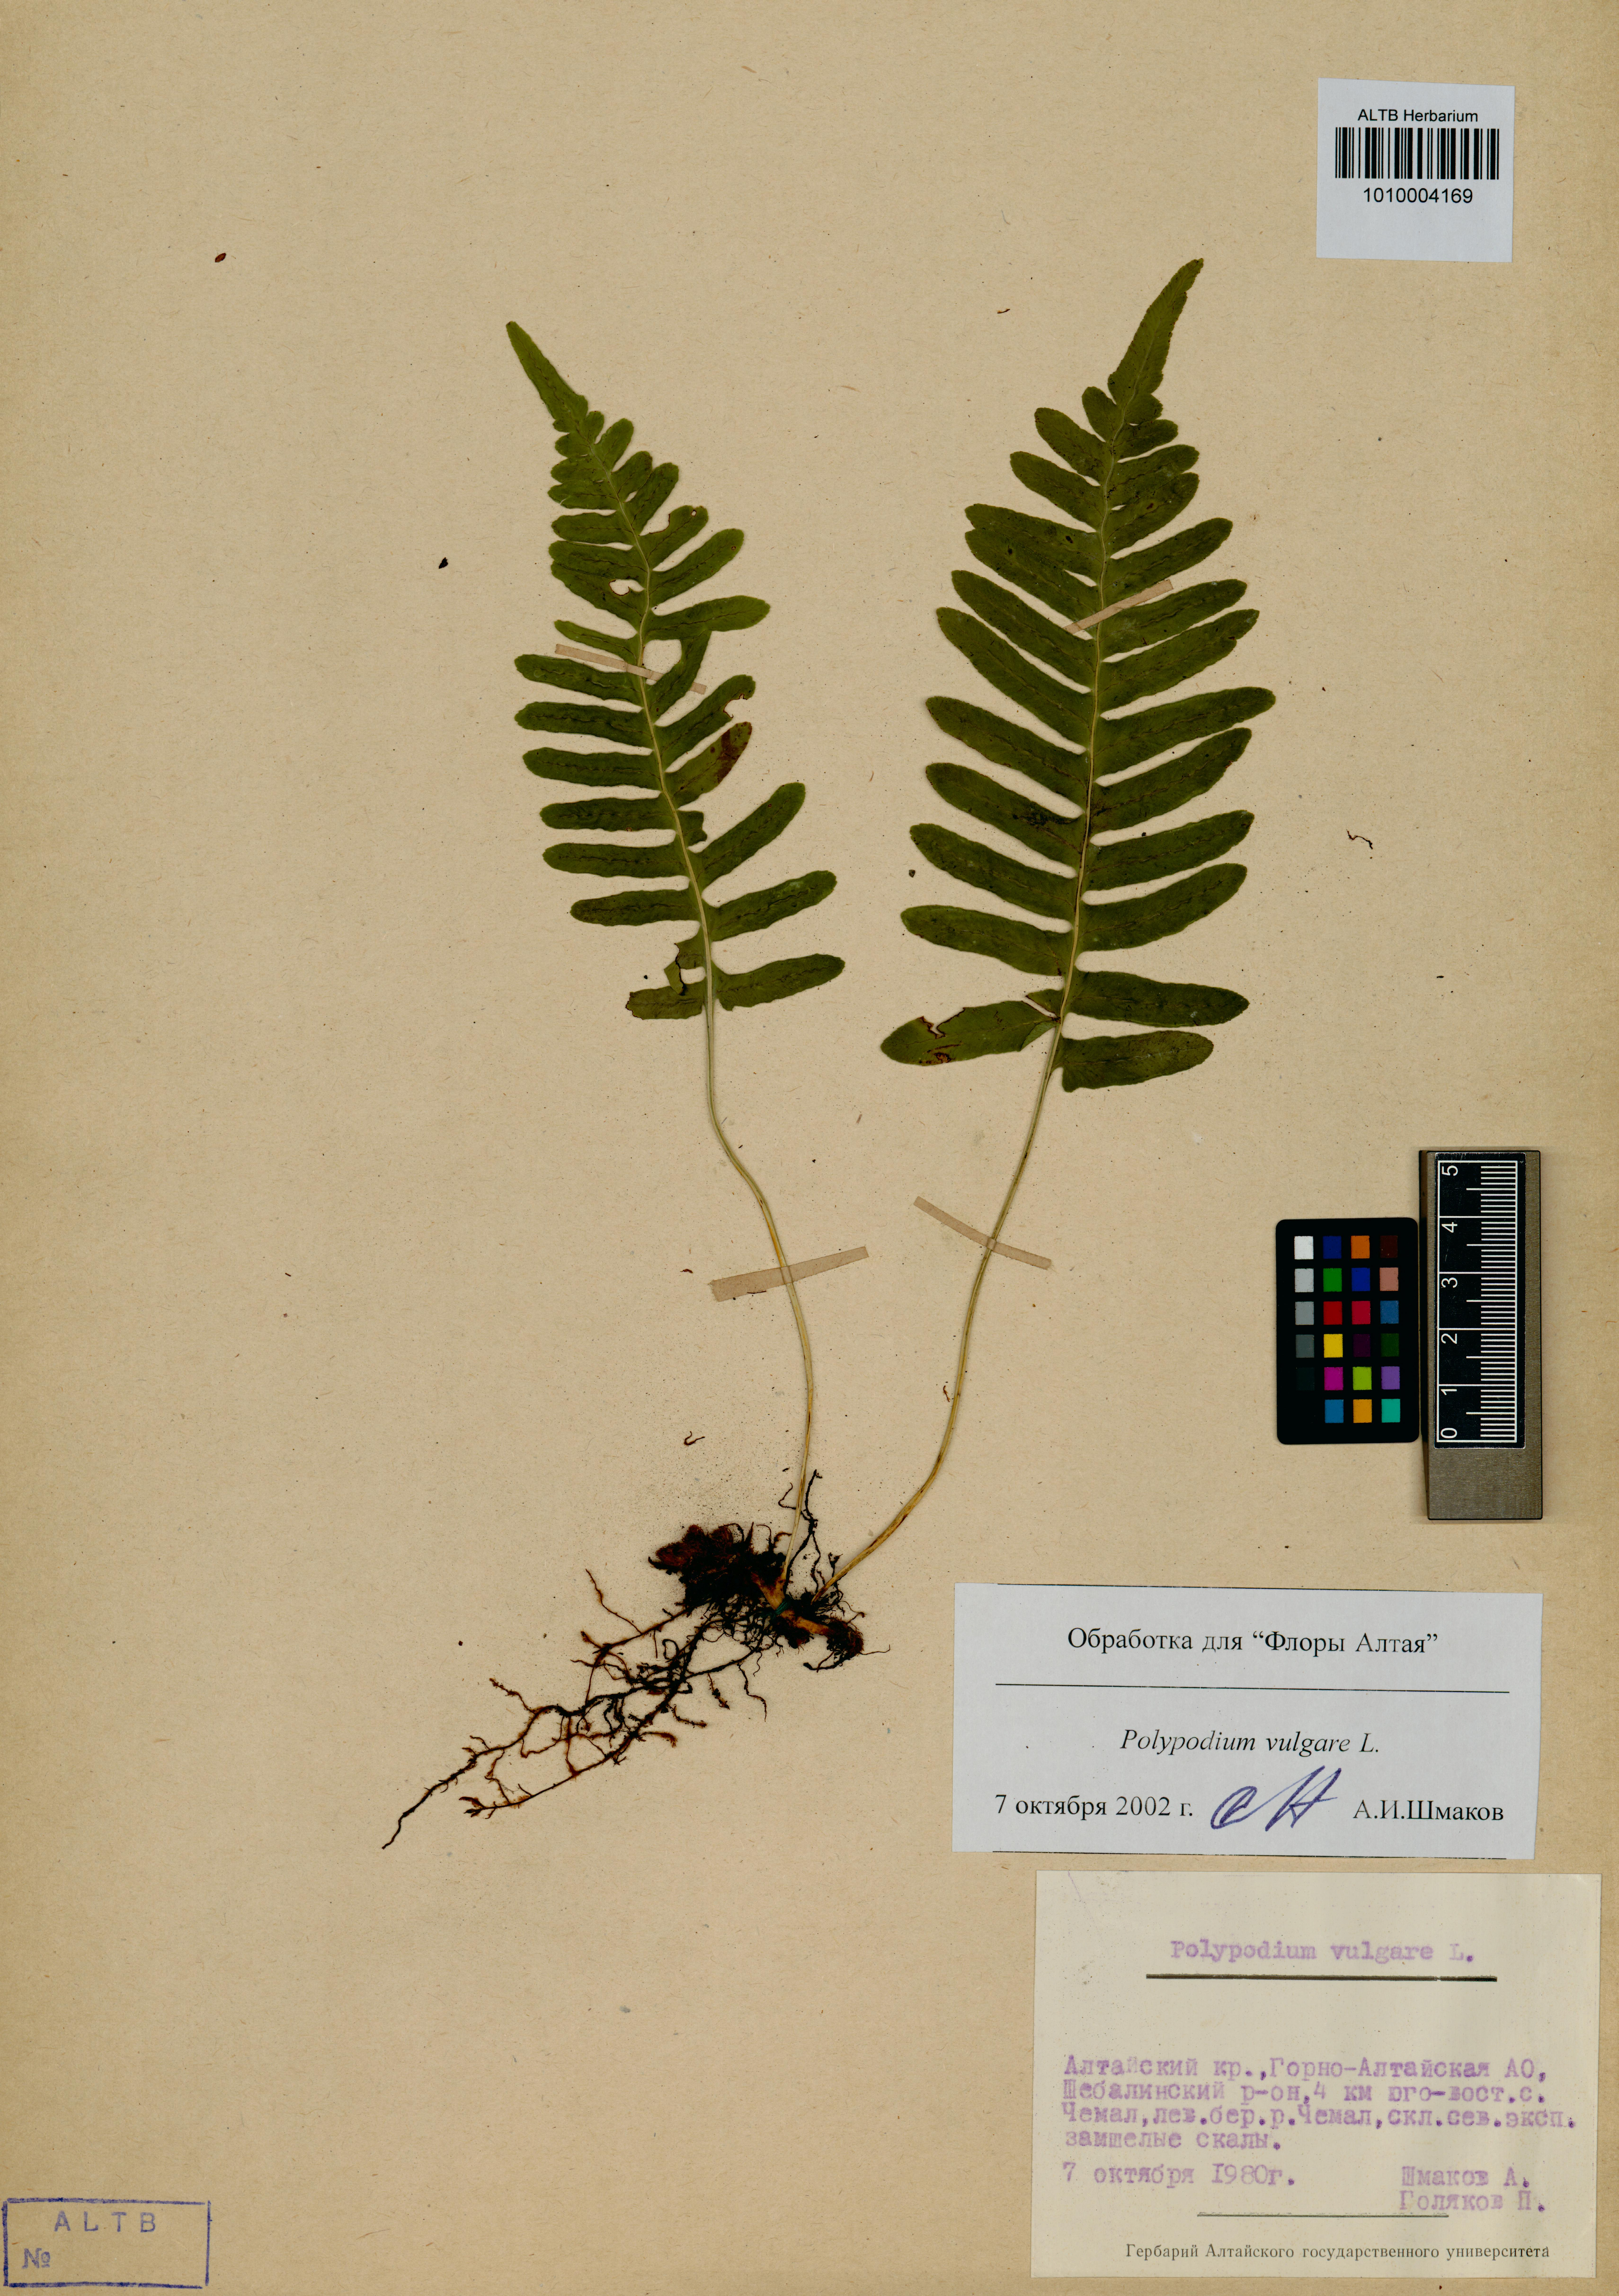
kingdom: Plantae
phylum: Tracheophyta
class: Polypodiopsida
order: Polypodiales
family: Polypodiaceae
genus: Polypodium
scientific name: Polypodium vulgare
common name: Common polypody
